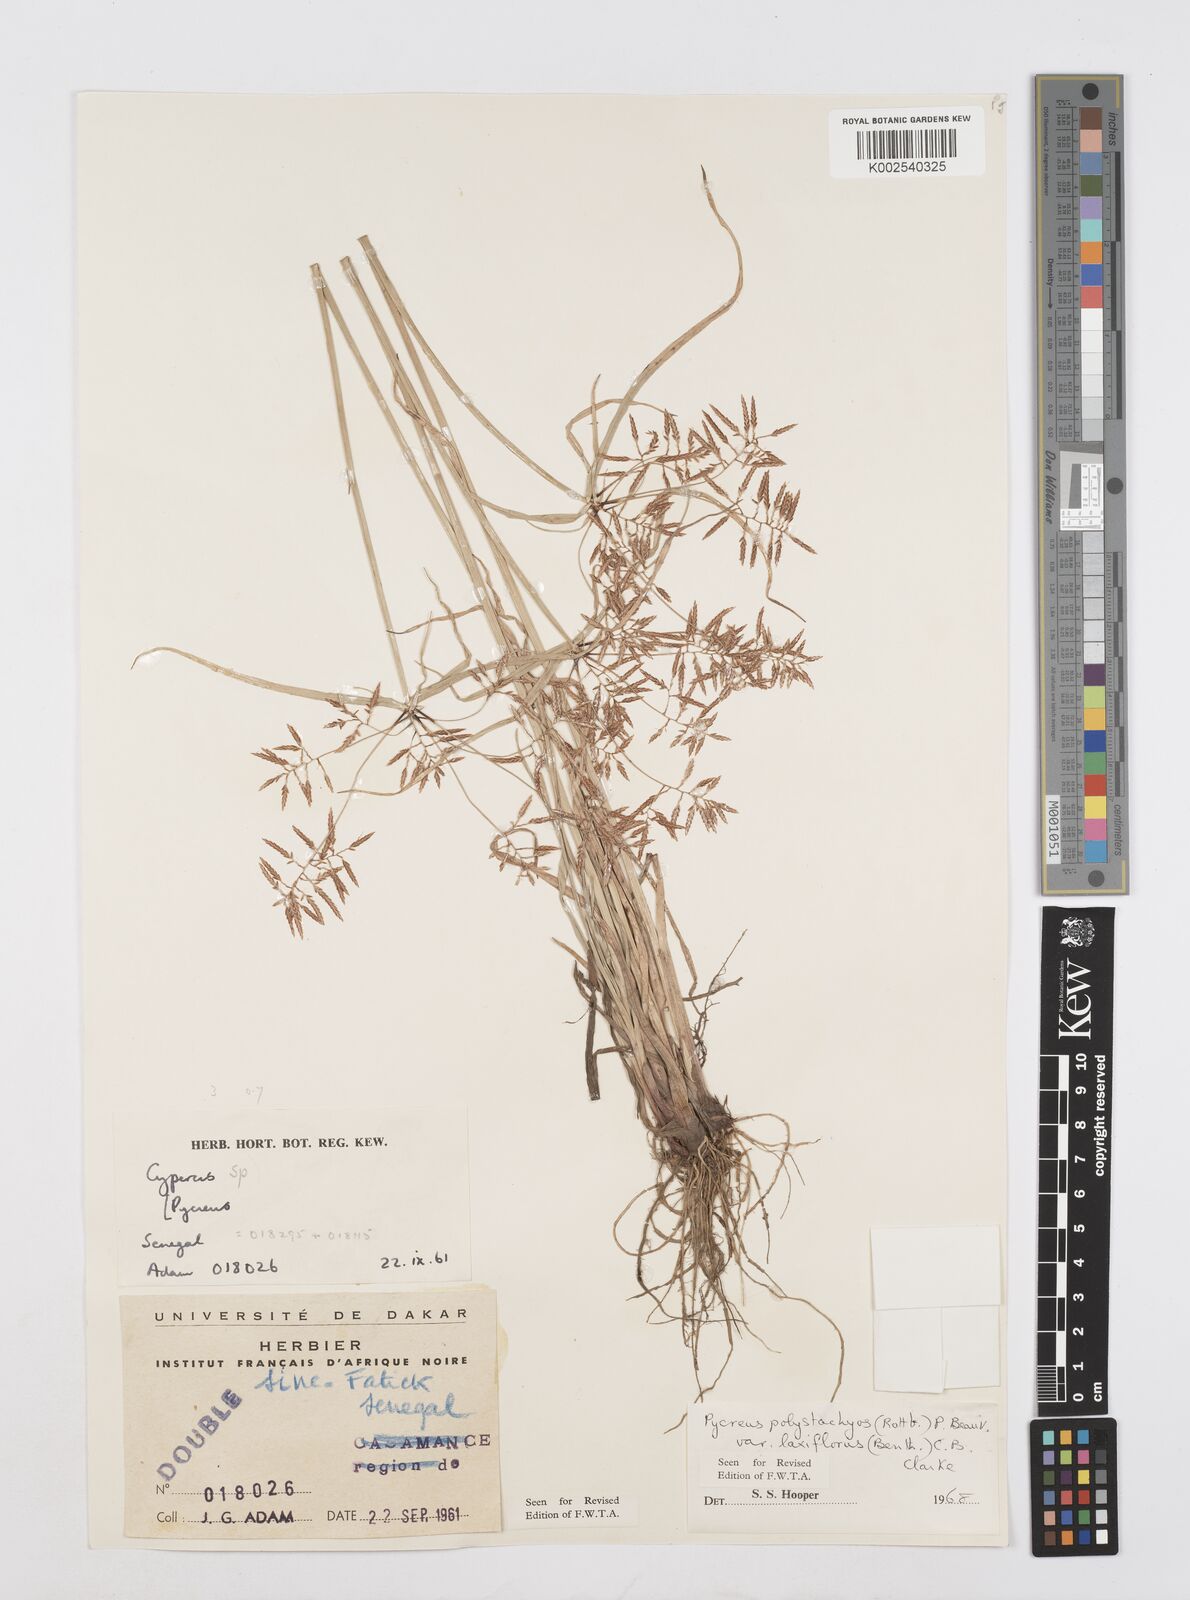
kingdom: Plantae
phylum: Tracheophyta
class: Liliopsida
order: Poales
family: Cyperaceae
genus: Cyperus
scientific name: Cyperus polystachyos
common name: Bunchy flat sedge
